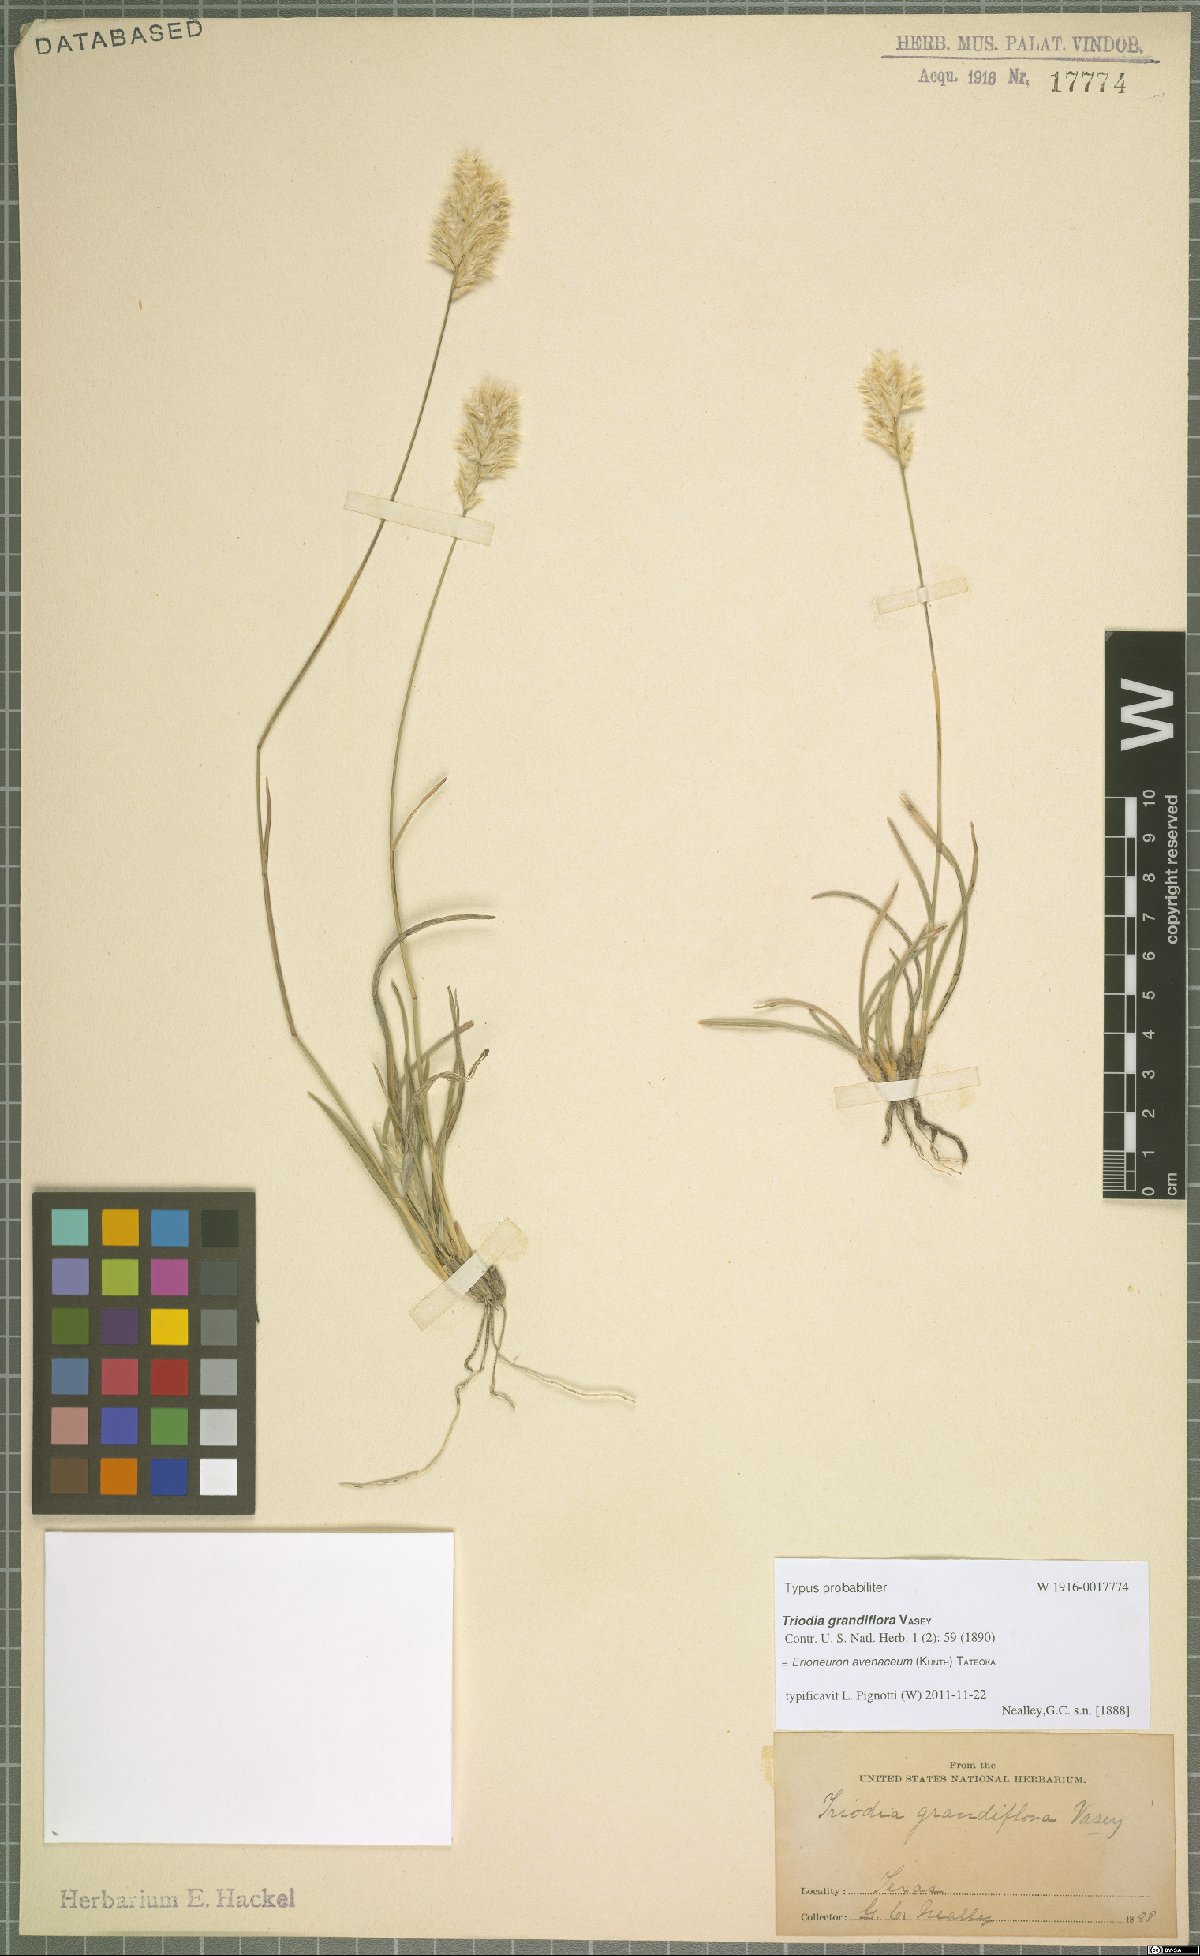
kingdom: Plantae
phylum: Tracheophyta
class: Liliopsida
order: Poales
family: Poaceae
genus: Erioneuron
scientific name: Erioneuron avenaceum
